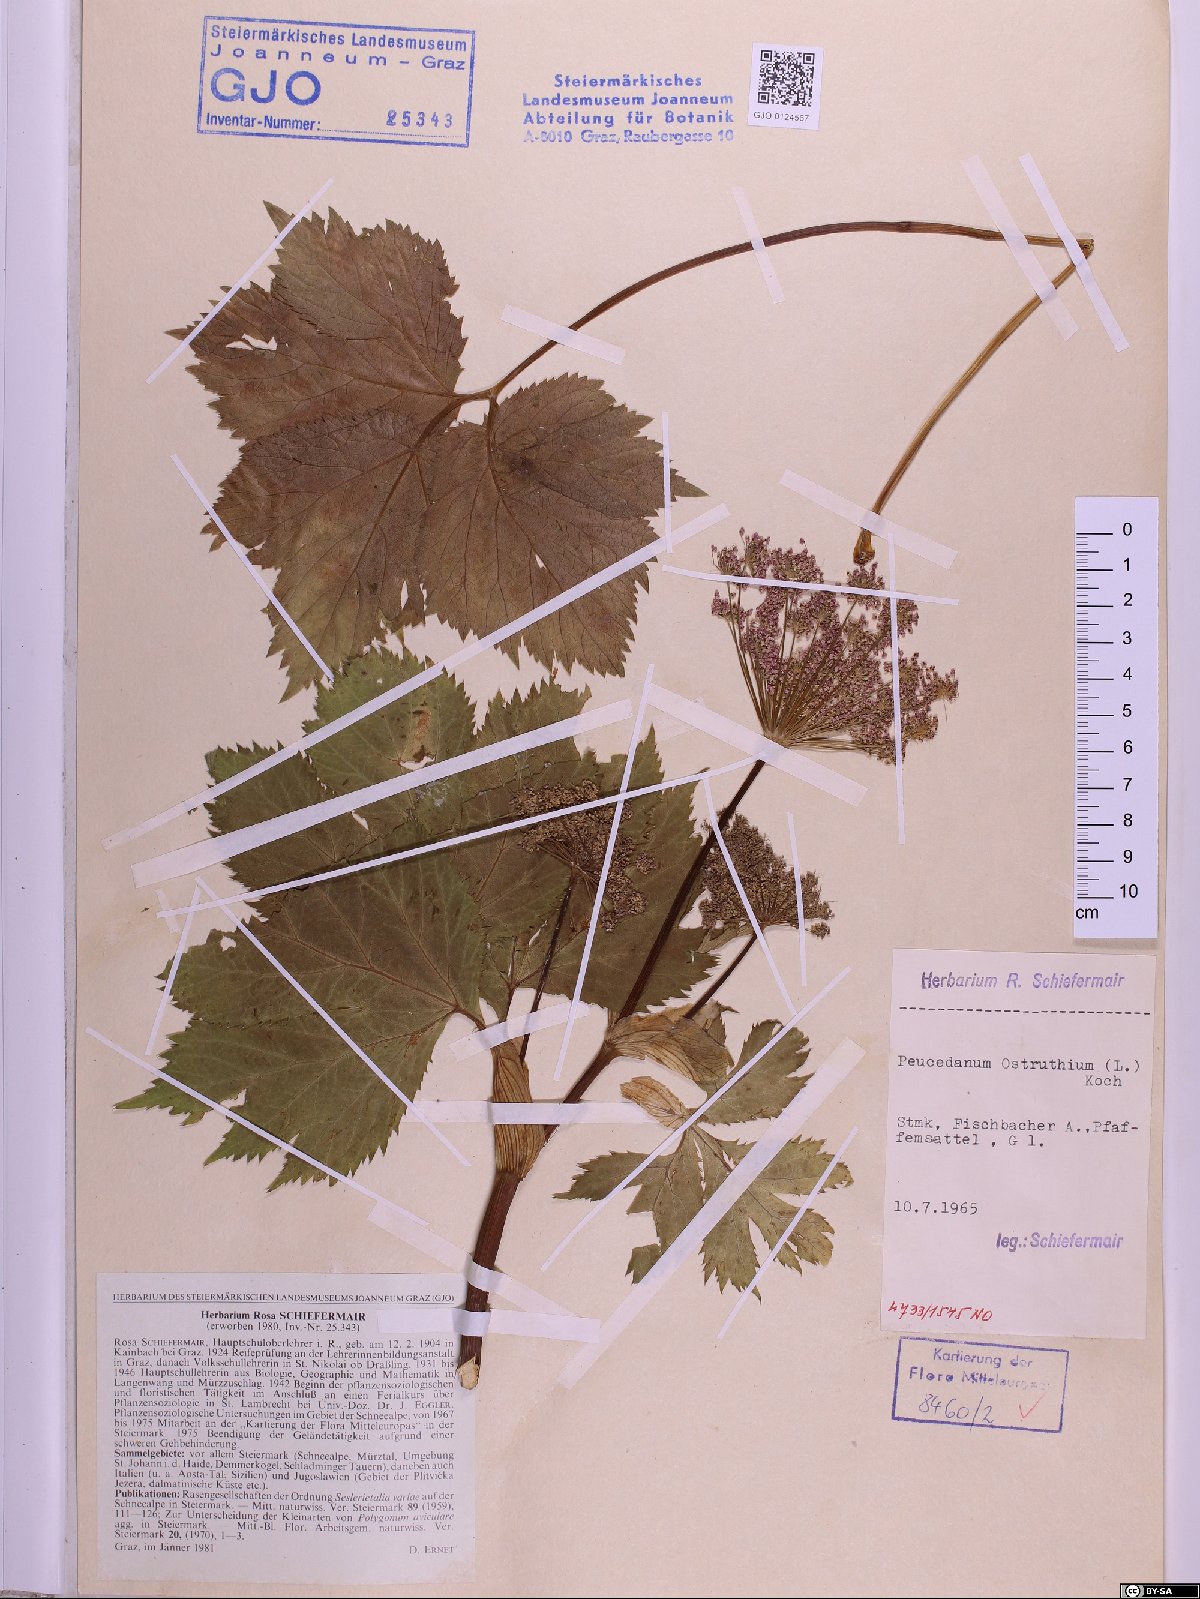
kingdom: Plantae
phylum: Tracheophyta
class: Magnoliopsida
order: Apiales
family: Apiaceae
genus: Imperatoria
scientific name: Imperatoria ostruthium
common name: Masterwort
